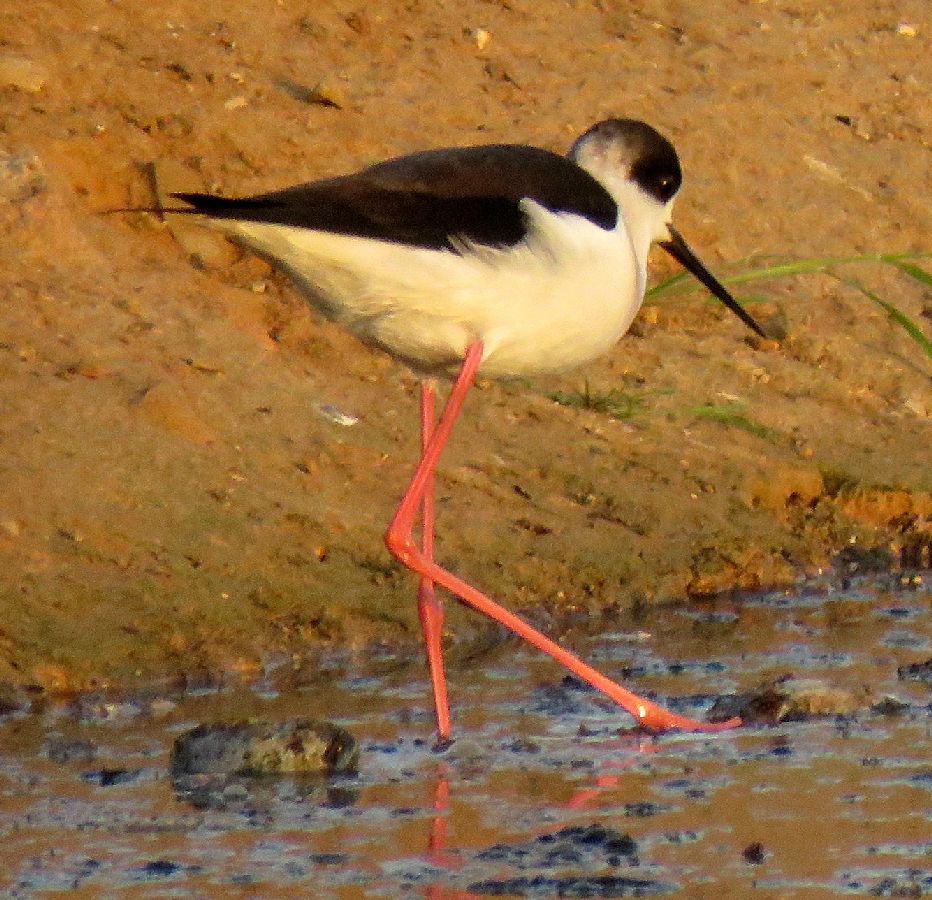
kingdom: Animalia
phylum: Chordata
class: Aves
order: Charadriiformes
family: Recurvirostridae
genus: Himantopus
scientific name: Himantopus himantopus
